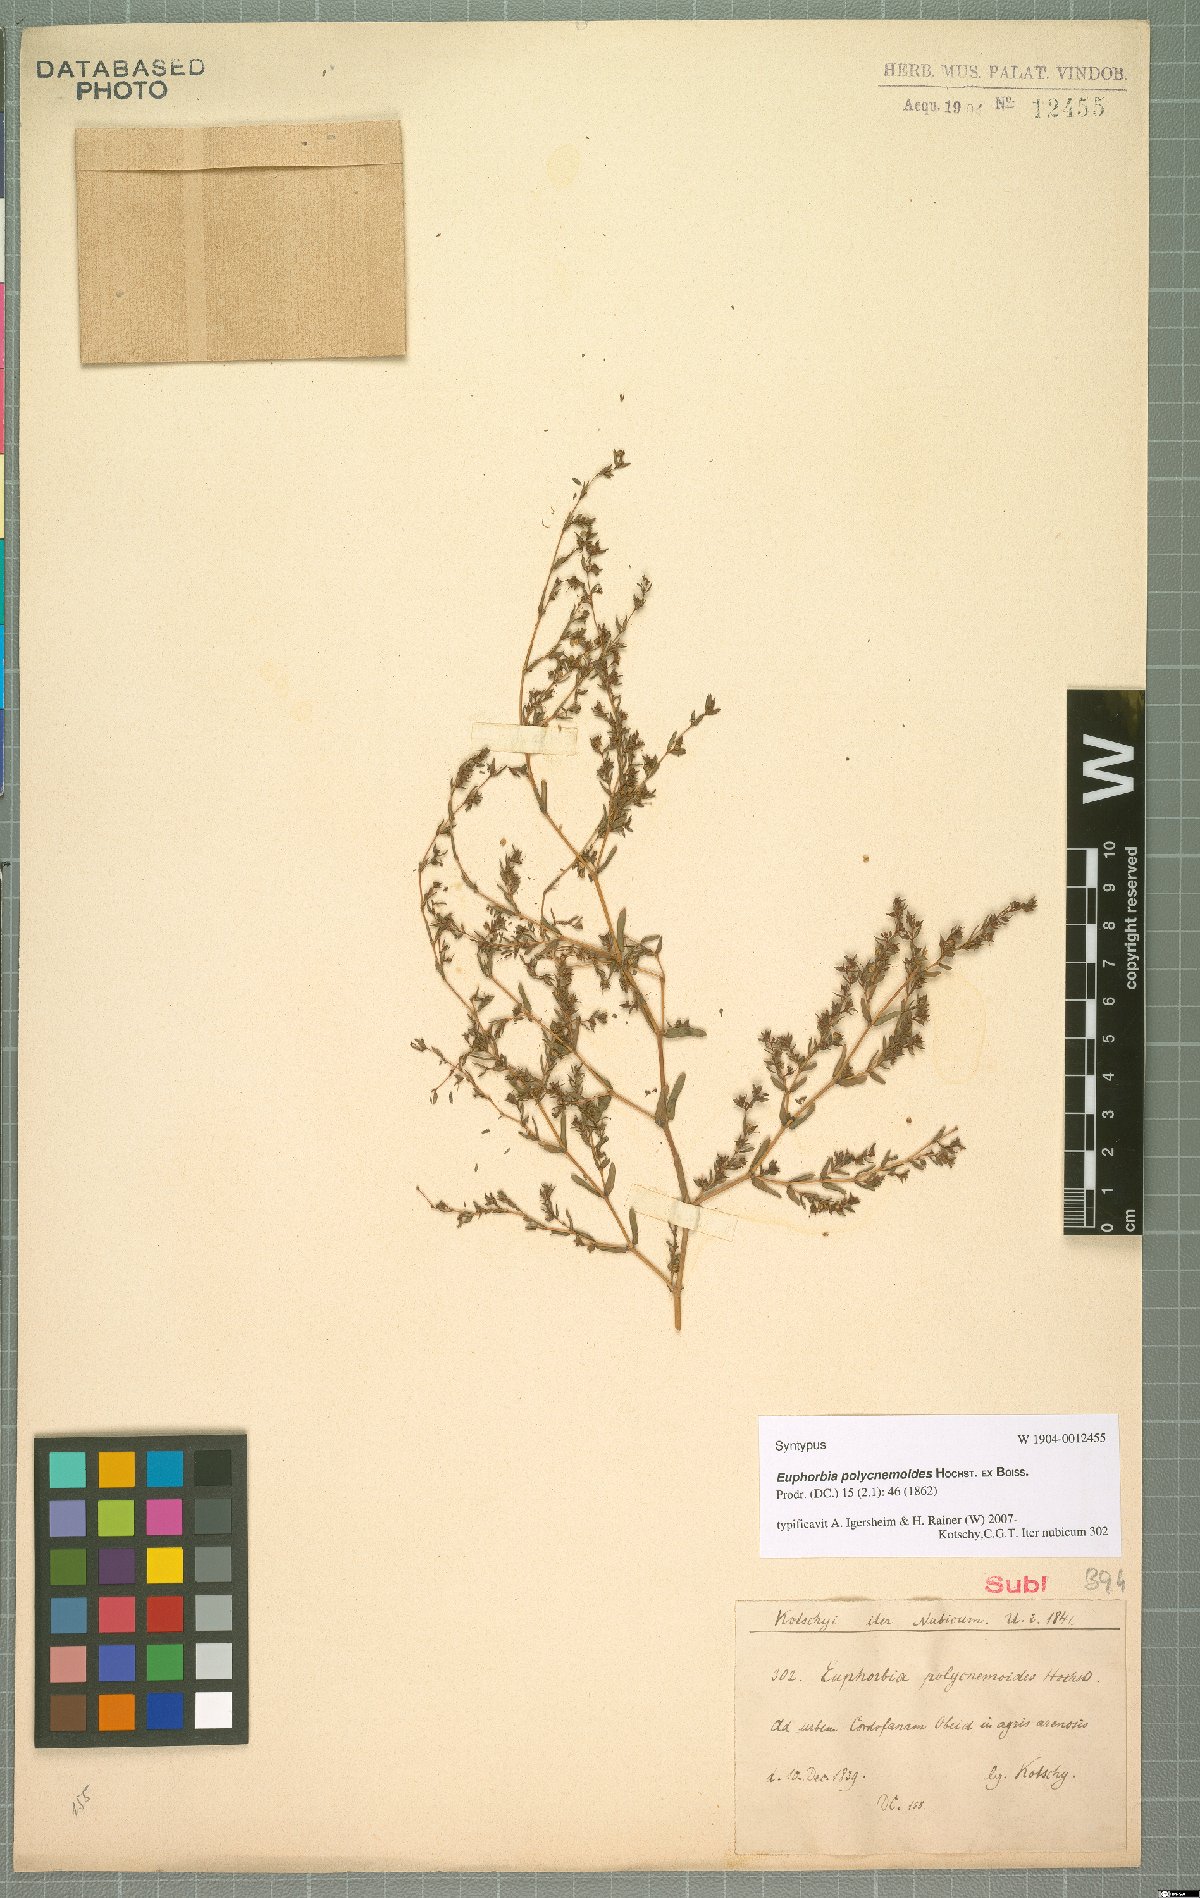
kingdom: Plantae
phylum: Tracheophyta
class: Magnoliopsida
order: Malpighiales
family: Euphorbiaceae
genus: Euphorbia
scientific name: Euphorbia polycnemoides
